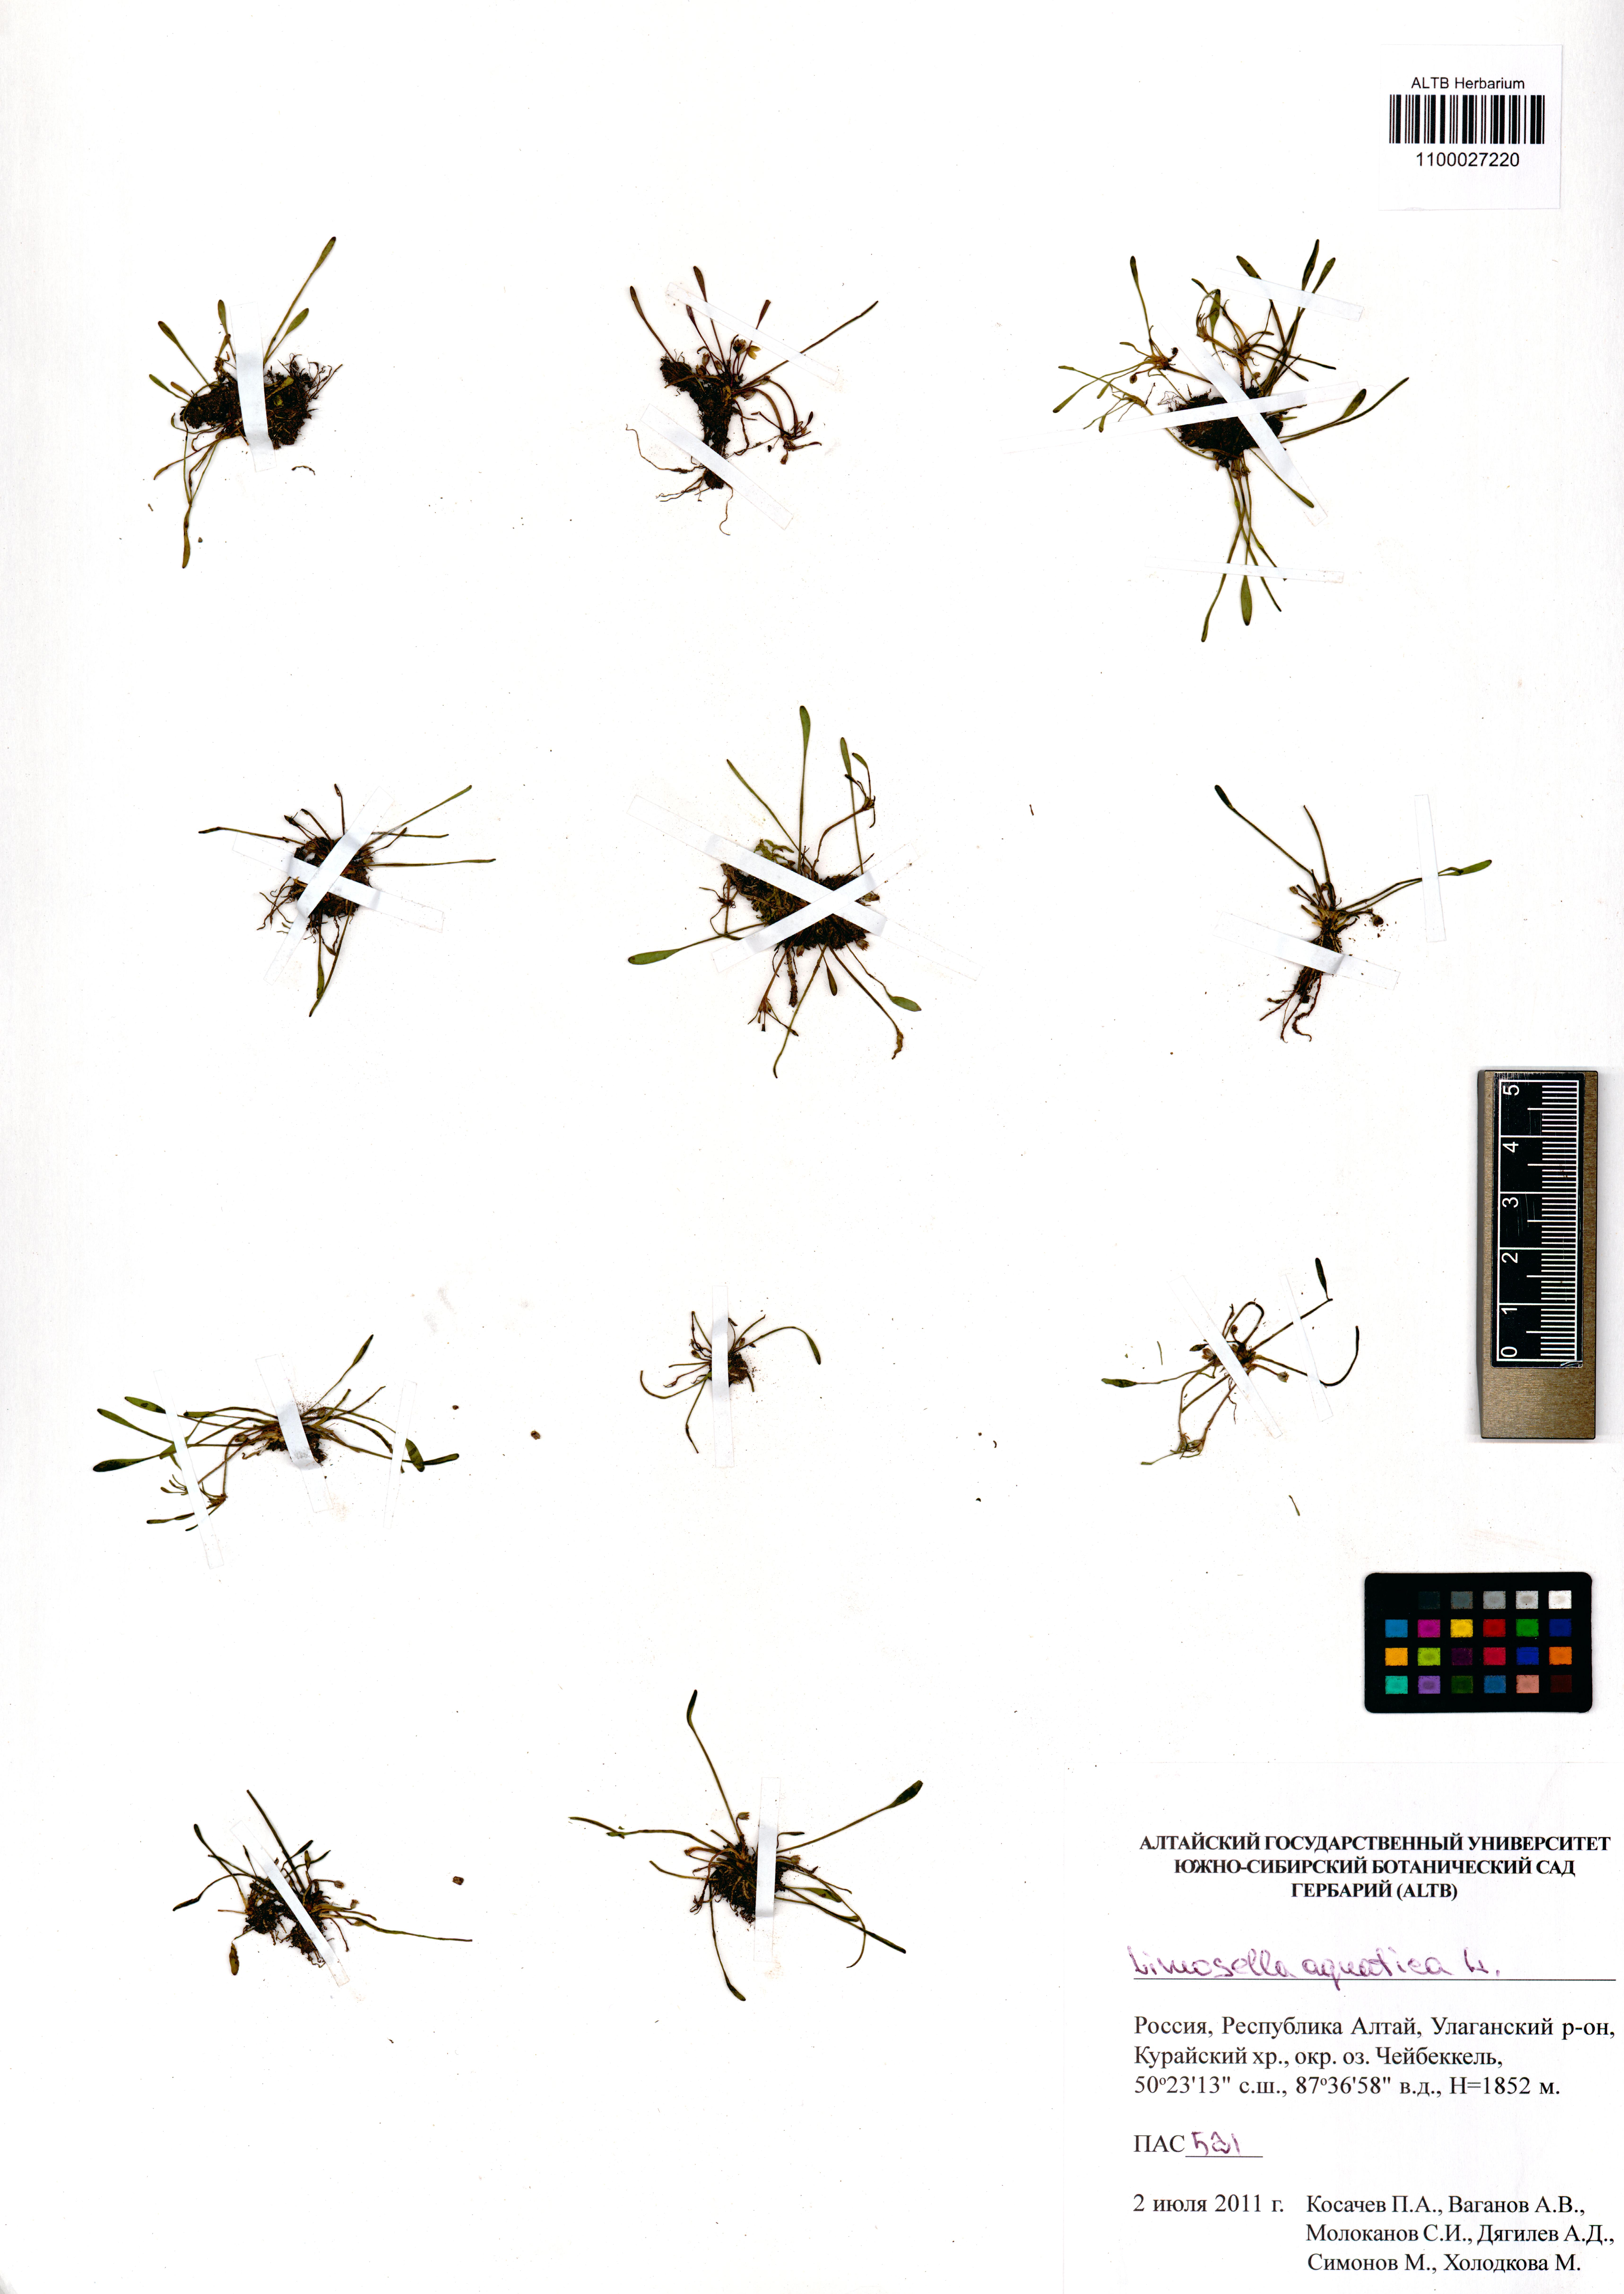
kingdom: Plantae
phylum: Tracheophyta
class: Magnoliopsida
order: Lamiales
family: Scrophulariaceae
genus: Limosella
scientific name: Limosella aquatica
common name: Mudwort
